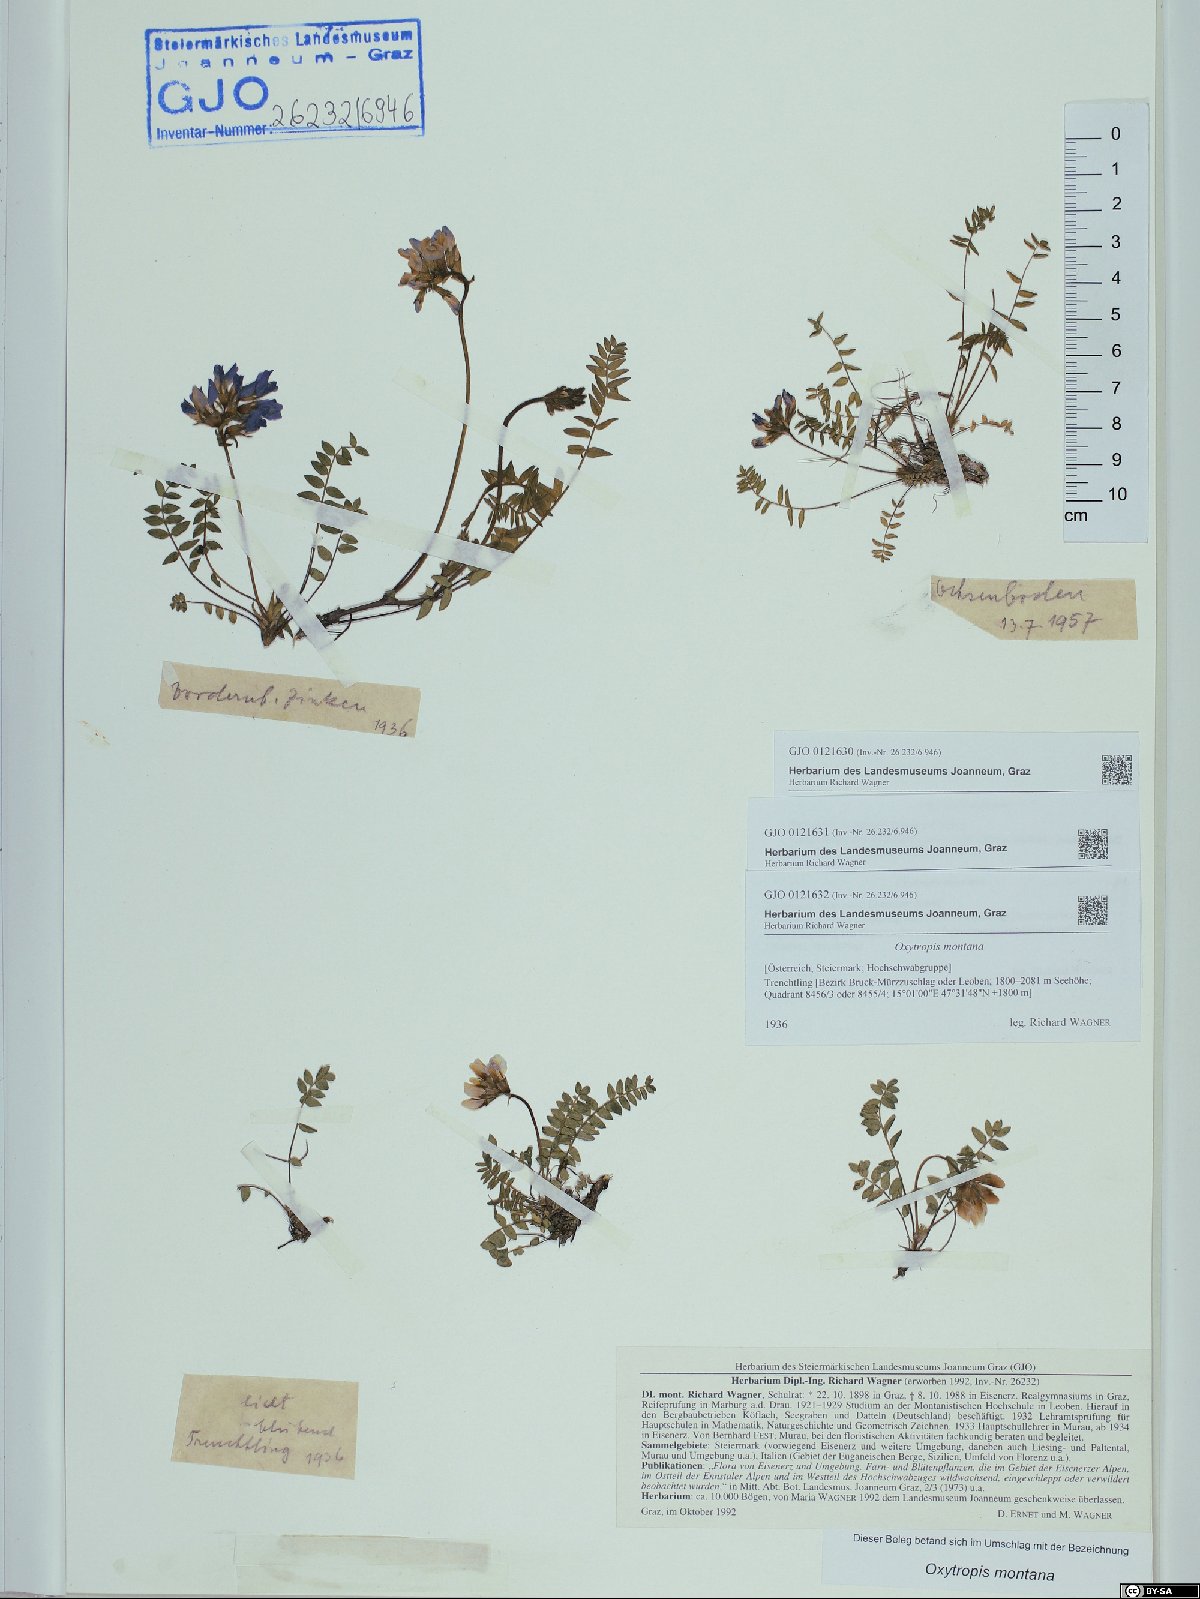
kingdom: Plantae
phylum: Tracheophyta
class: Magnoliopsida
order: Fabales
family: Fabaceae
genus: Oxytropis
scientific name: Oxytropis montana
